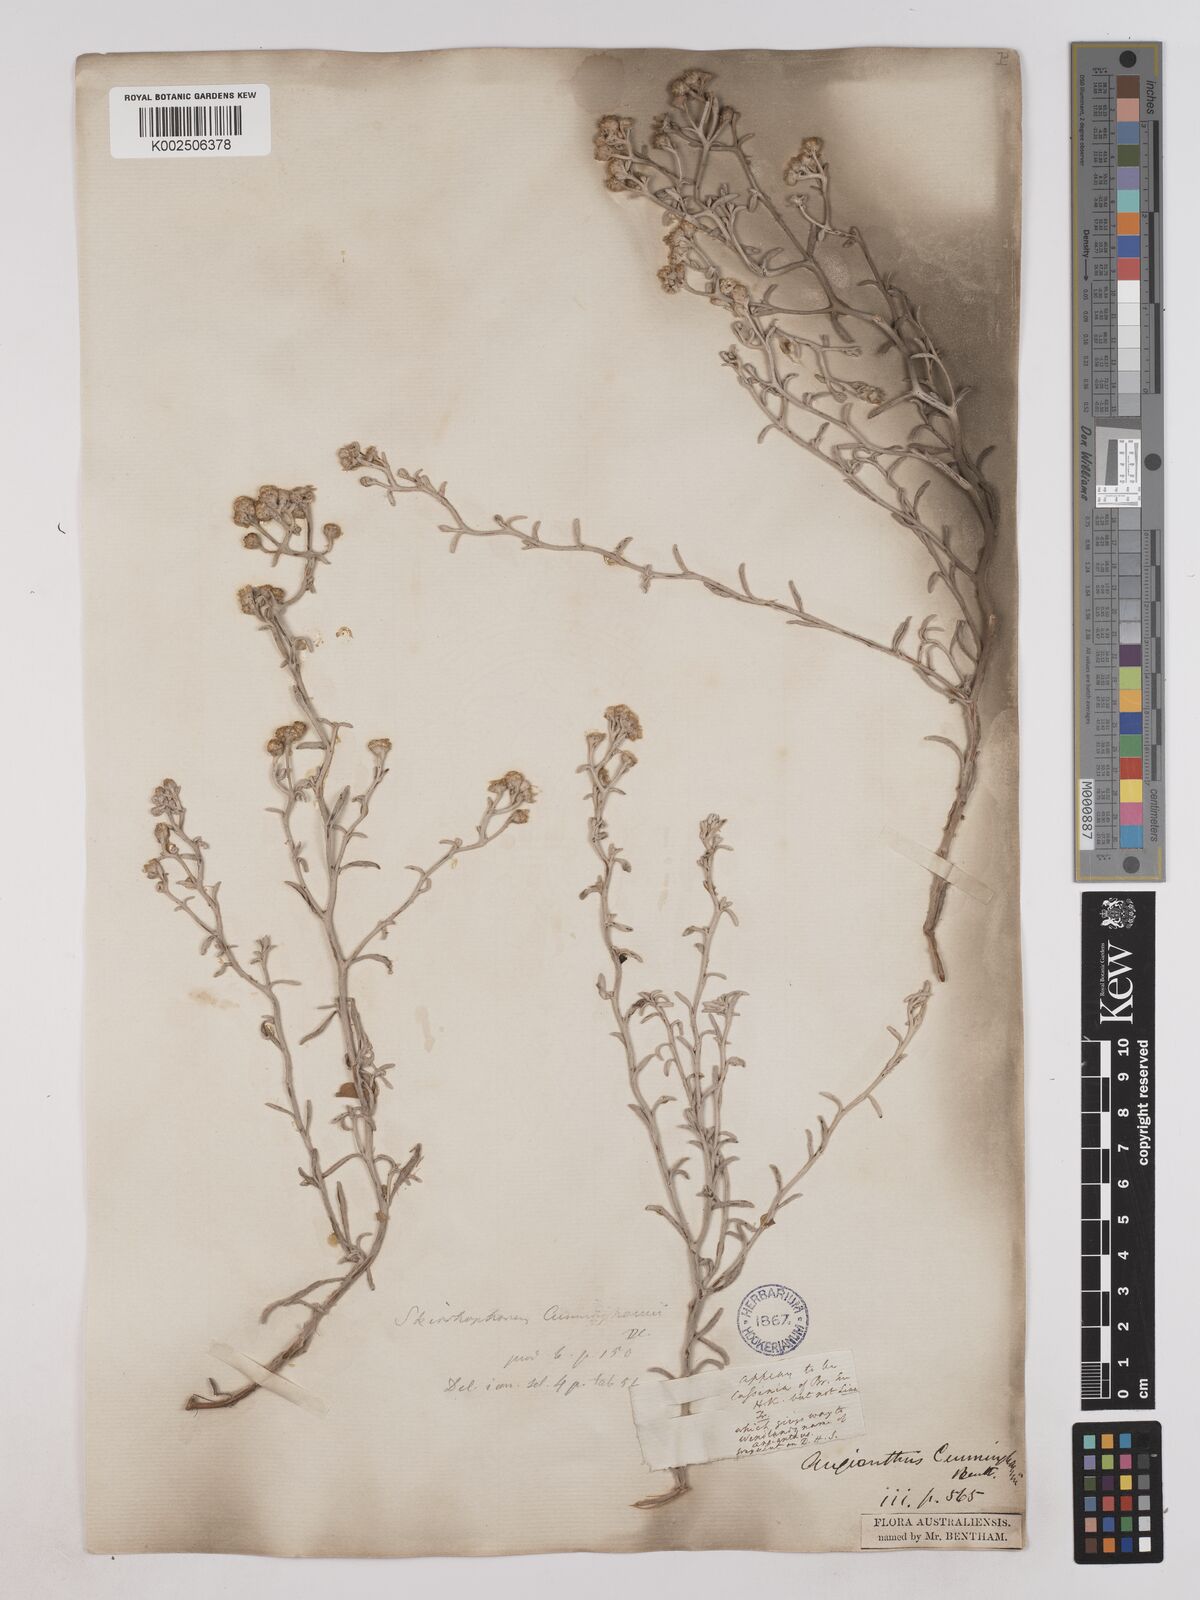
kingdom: Plantae
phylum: Tracheophyta
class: Magnoliopsida
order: Asterales
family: Asteraceae
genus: Angianthus
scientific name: Angianthus cunninghamii
